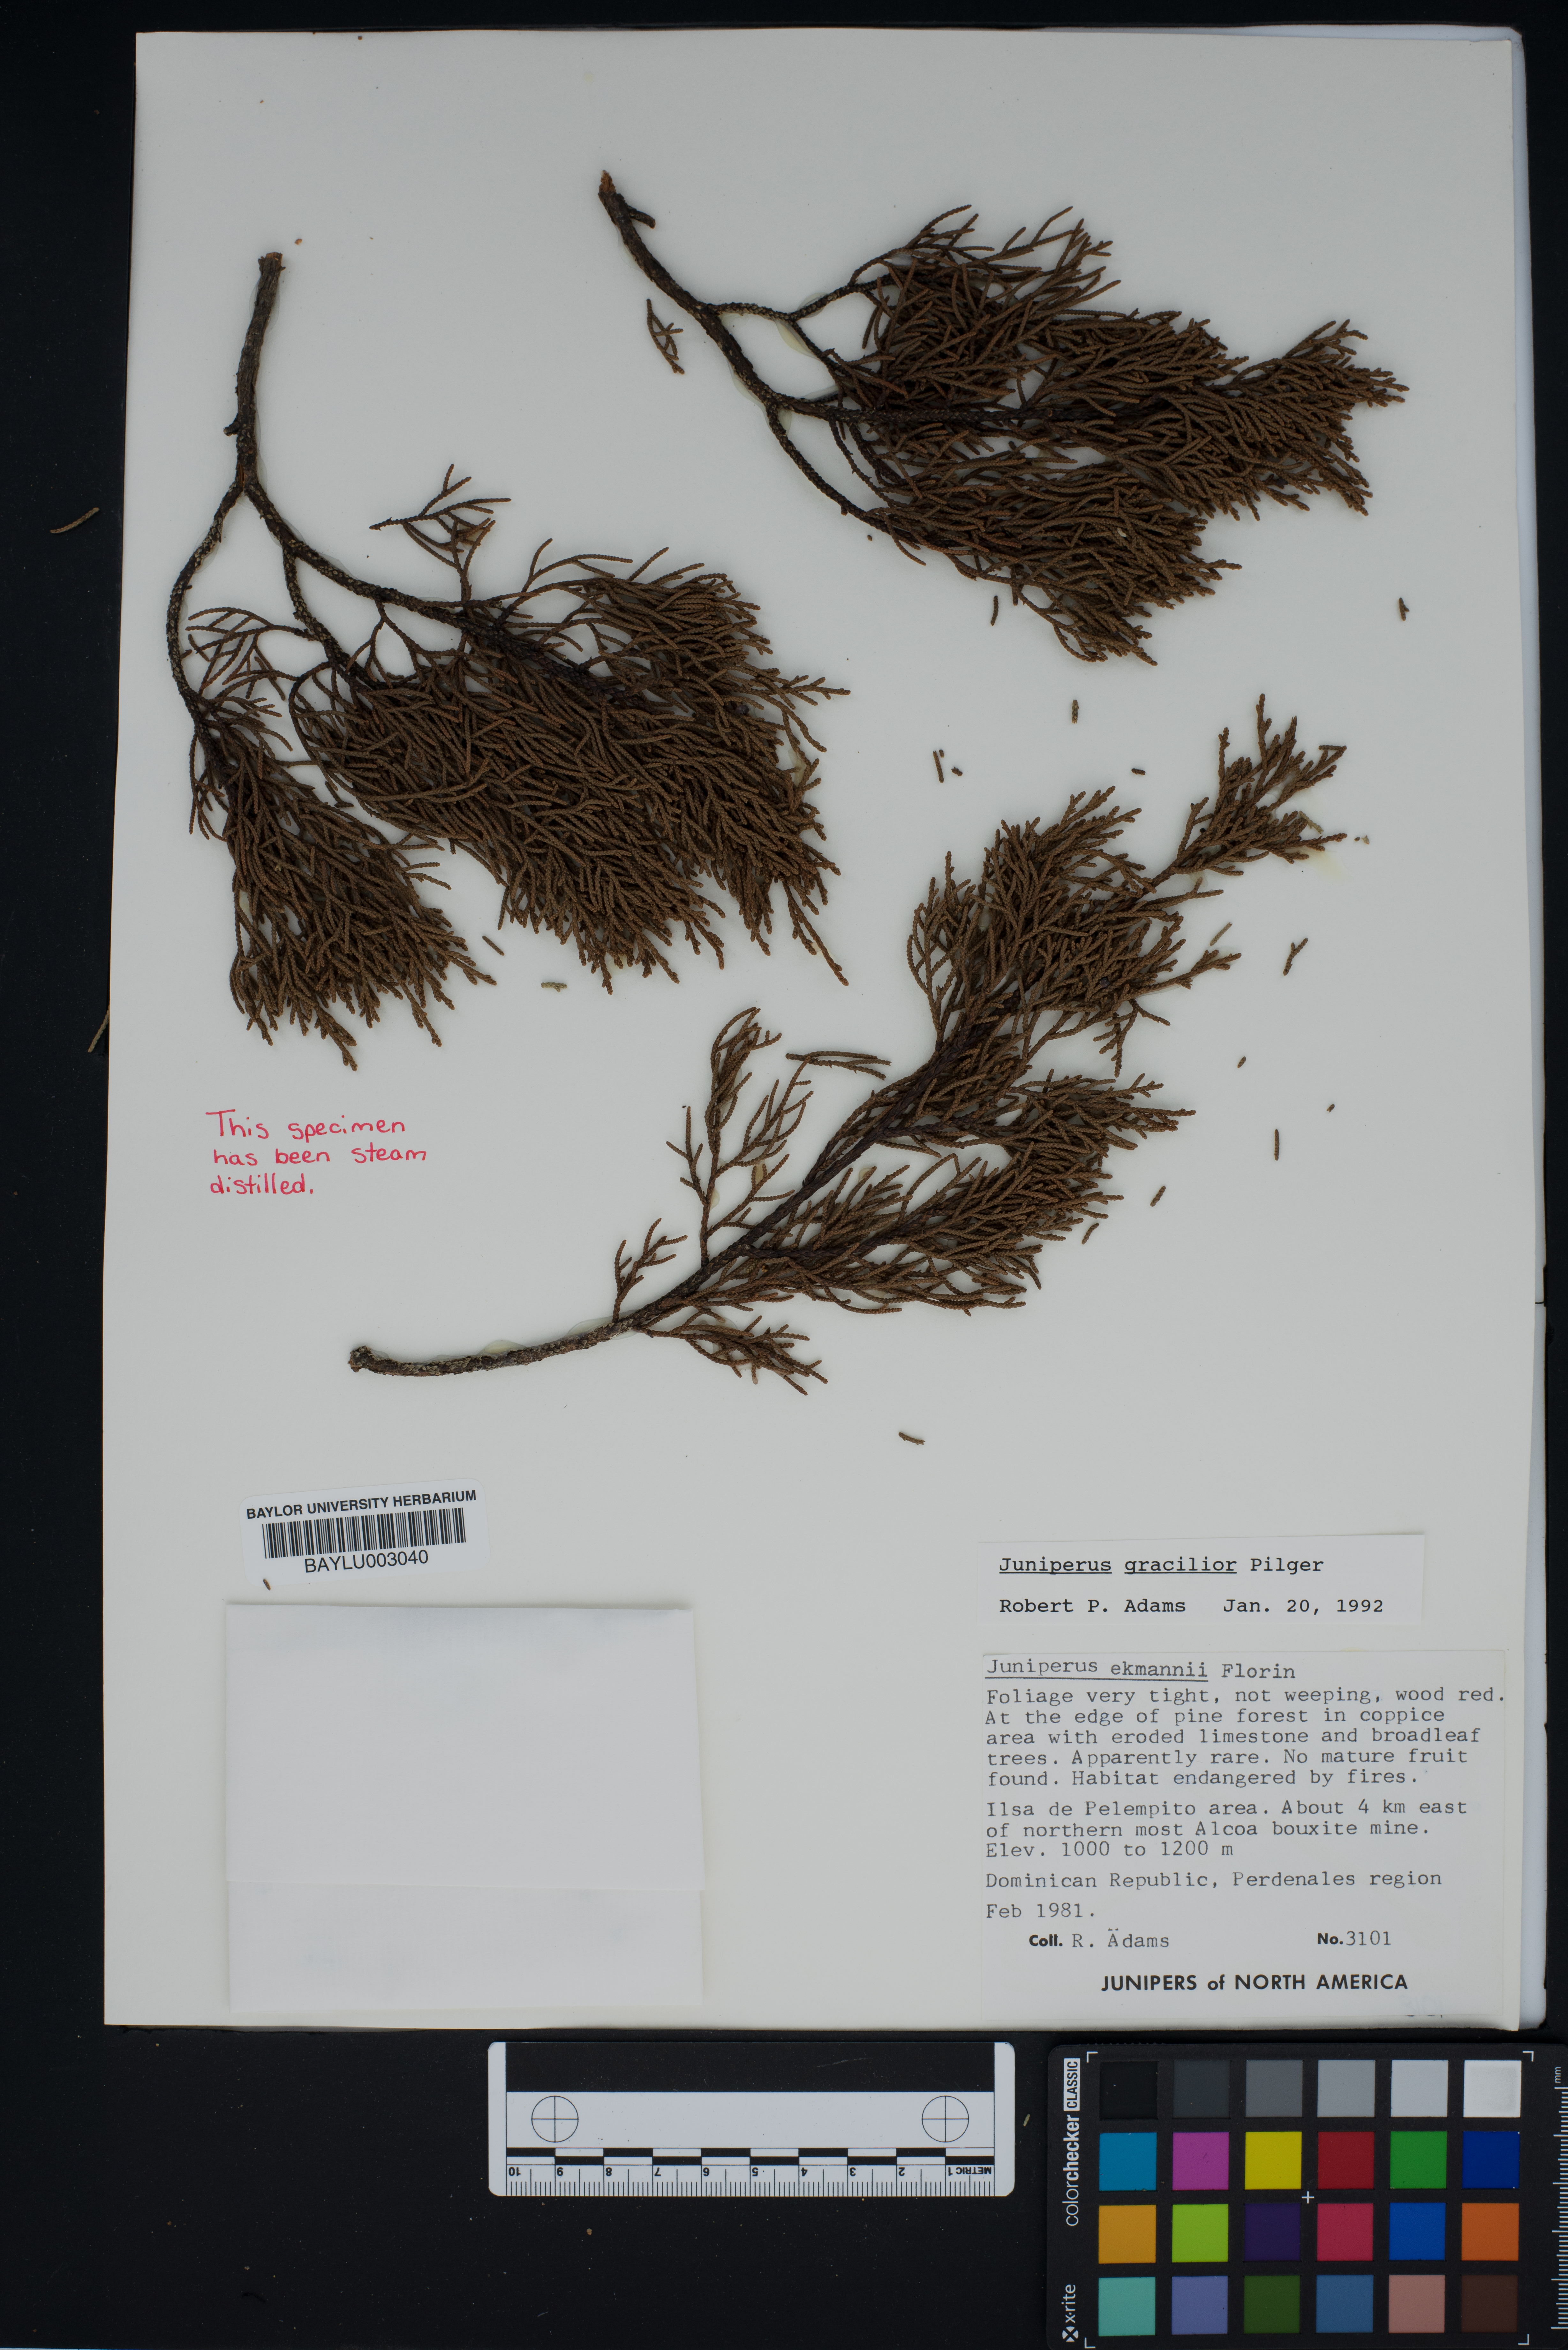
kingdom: Plantae
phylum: Tracheophyta
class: Pinopsida
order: Pinales
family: Cupressaceae
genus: Juniperus
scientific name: Juniperus gracilior
